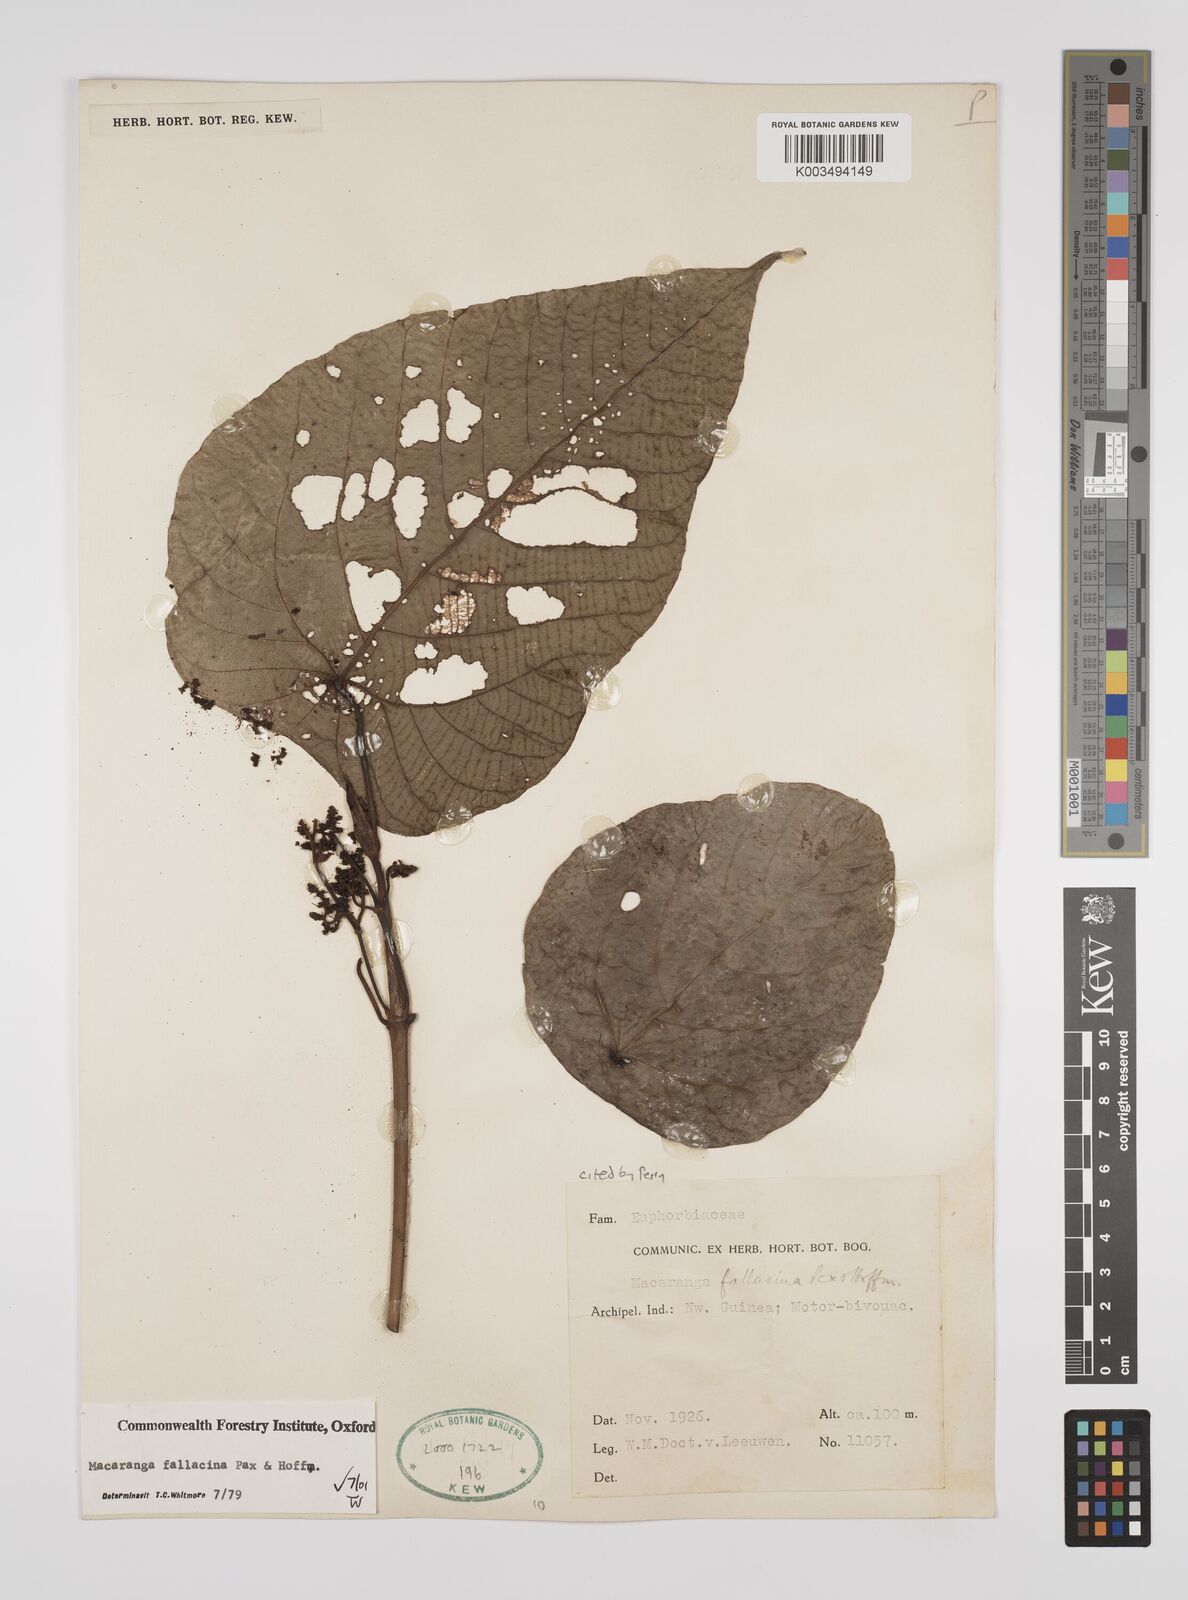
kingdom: Plantae
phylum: Tracheophyta
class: Magnoliopsida
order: Malpighiales
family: Euphorbiaceae
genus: Macaranga
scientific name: Macaranga fallacina
